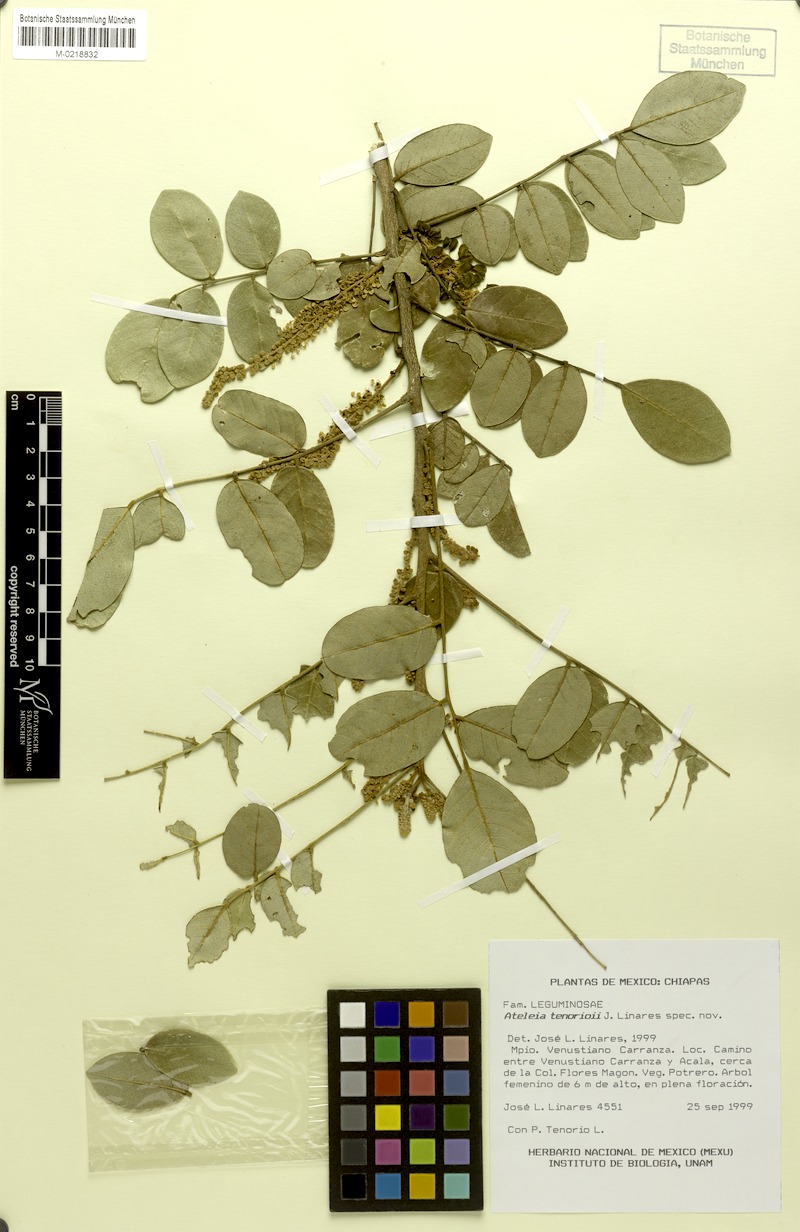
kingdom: Plantae
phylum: Tracheophyta
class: Magnoliopsida
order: Fabales
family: Fabaceae
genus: Ateleia
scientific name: Ateleia tenorioi
